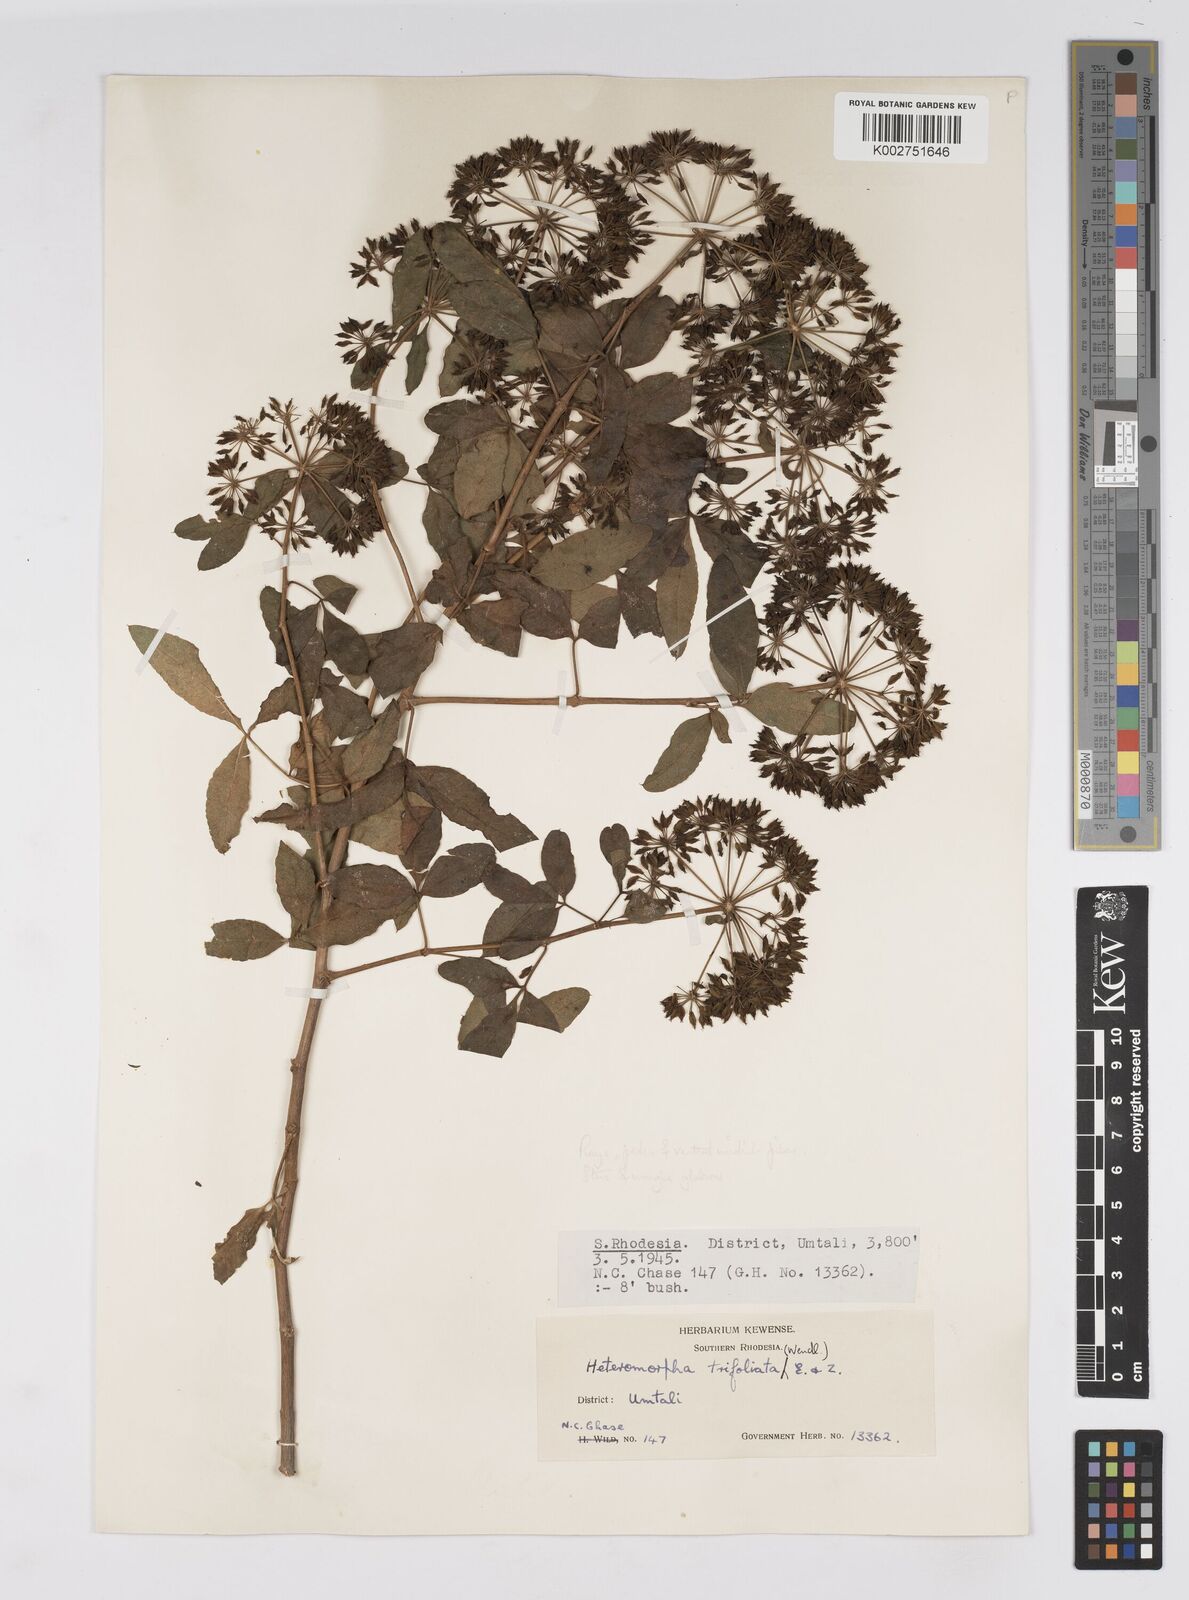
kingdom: Plantae
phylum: Tracheophyta
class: Magnoliopsida
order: Apiales
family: Apiaceae
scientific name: Apiaceae
